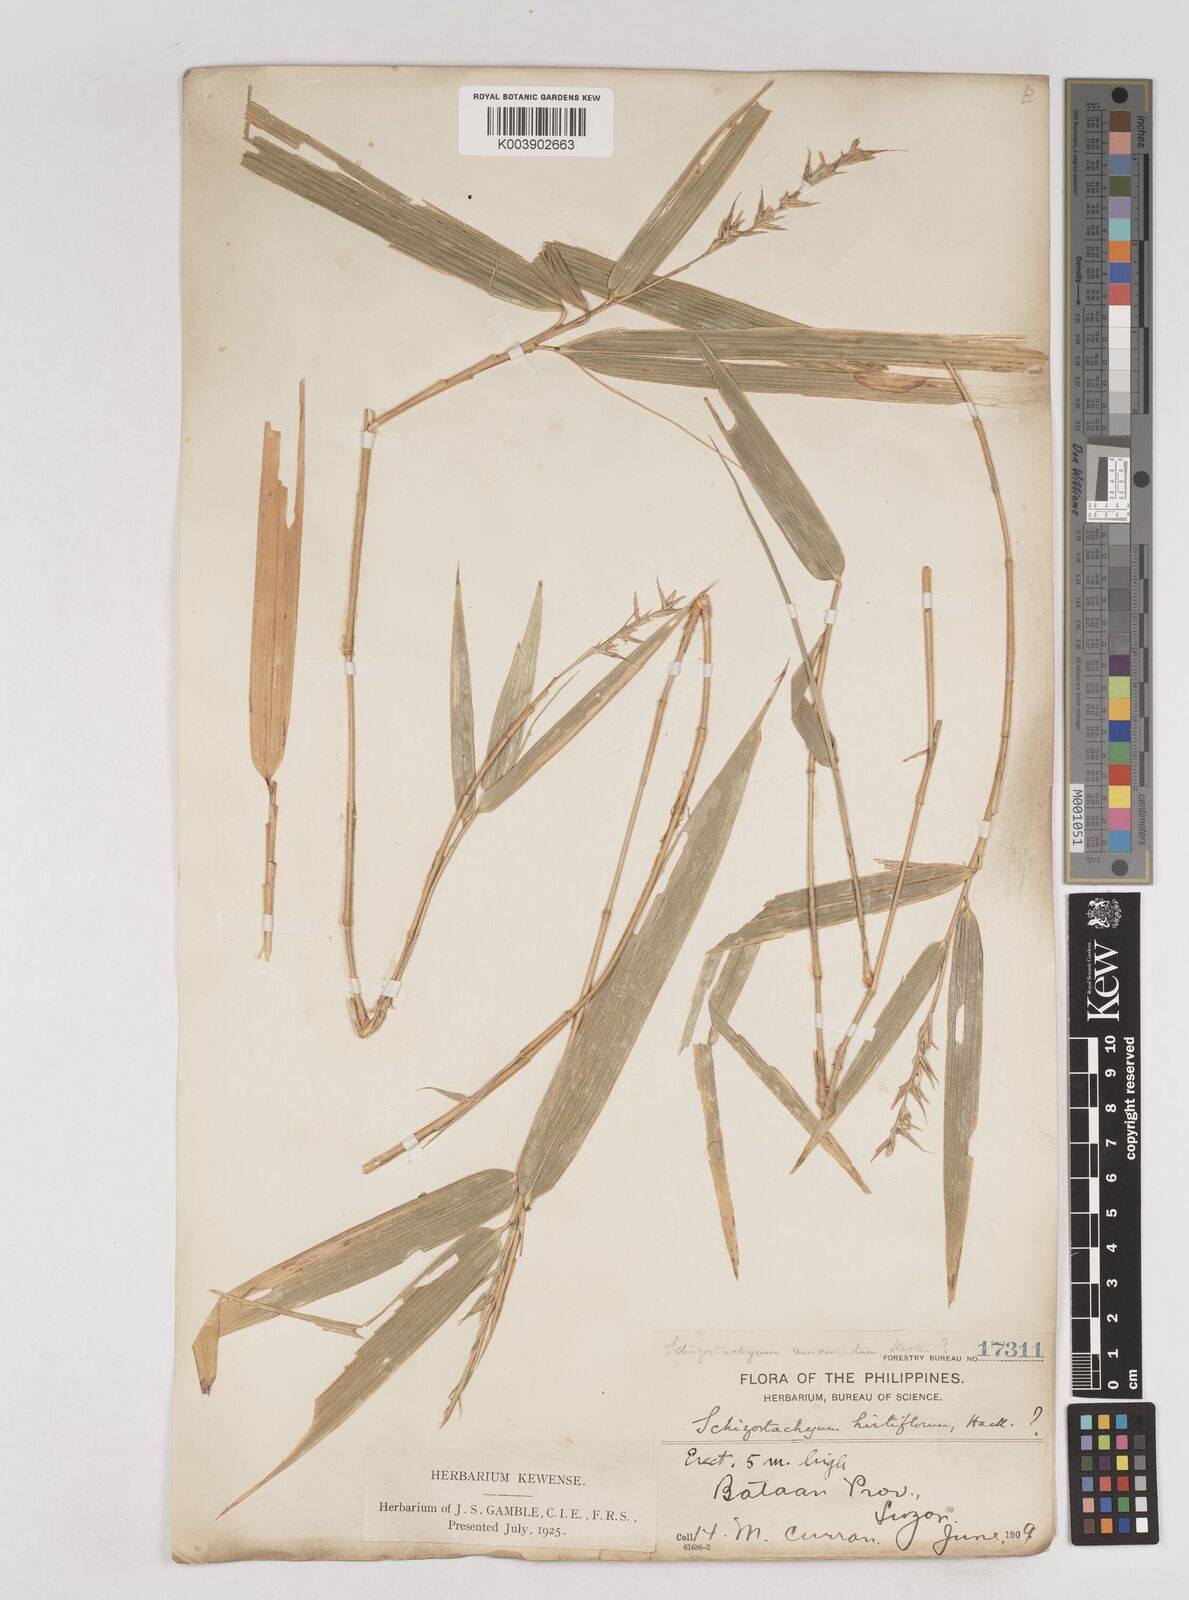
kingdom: Plantae
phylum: Tracheophyta
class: Liliopsida
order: Poales
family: Poaceae
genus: Schizostachyum
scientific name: Schizostachyum lumampao
